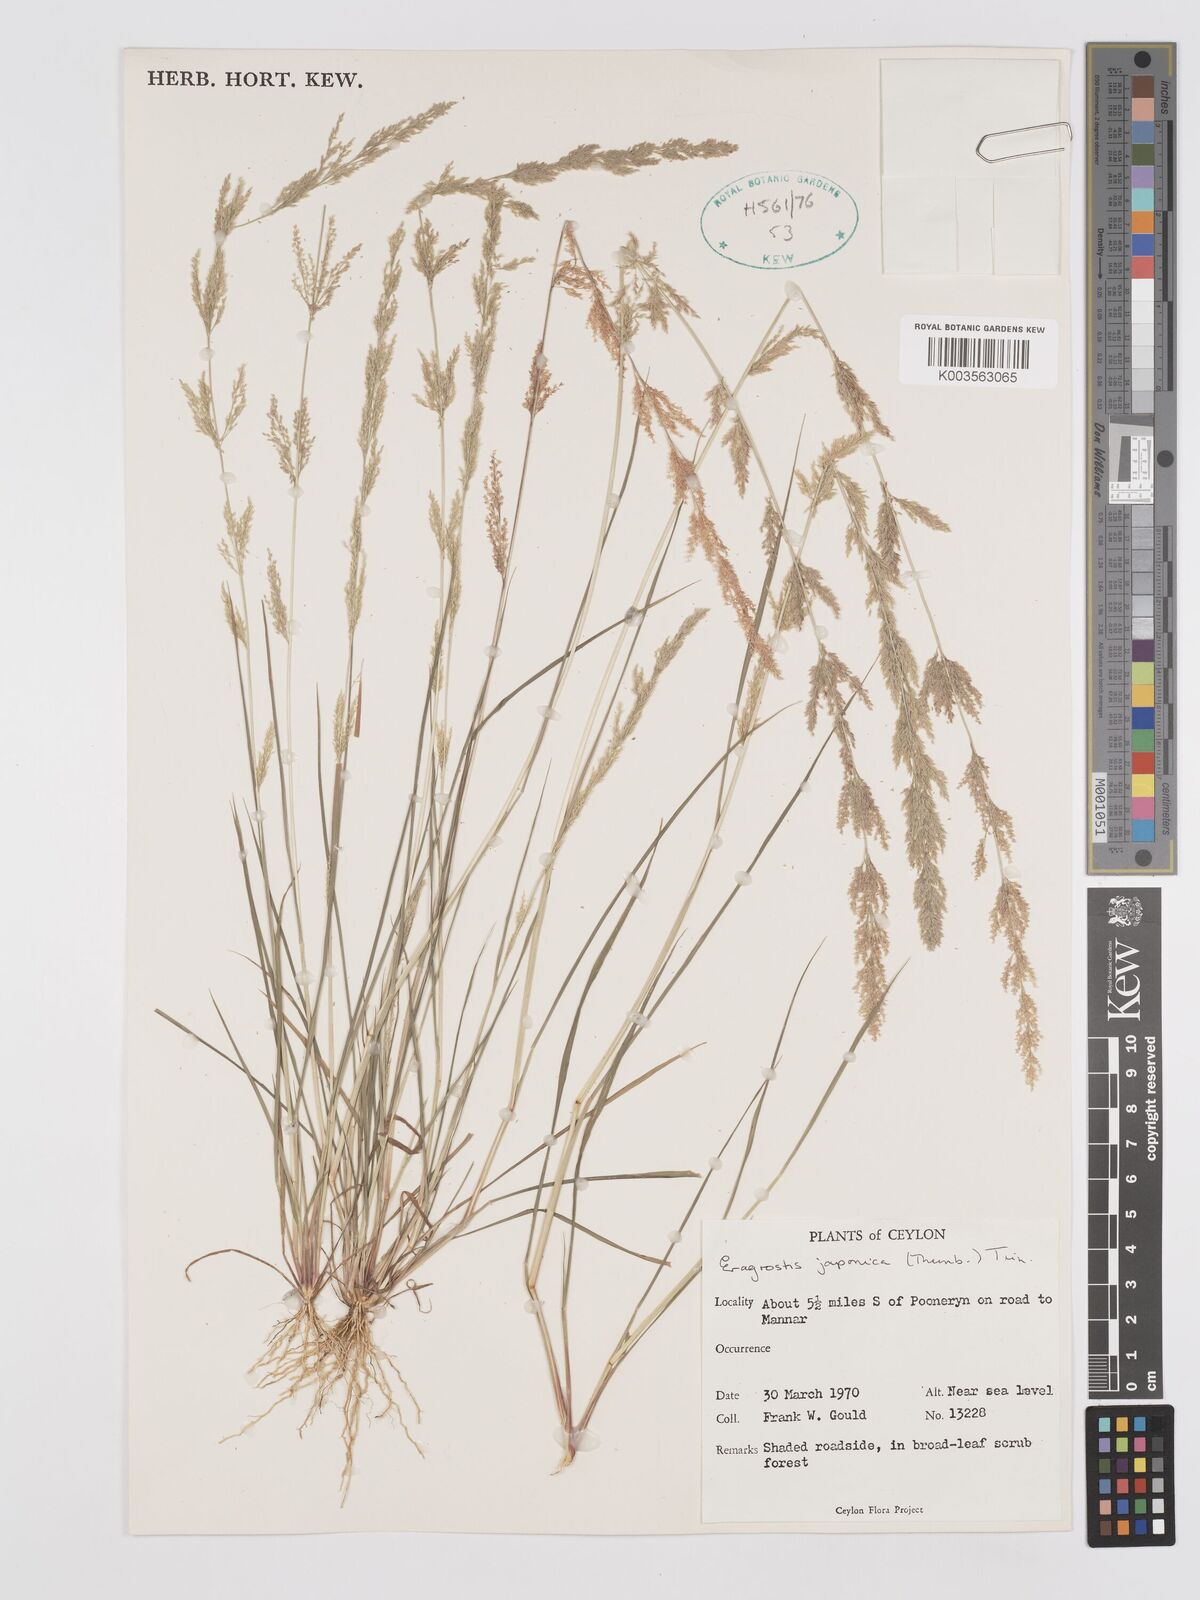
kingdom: Plantae
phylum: Tracheophyta
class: Liliopsida
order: Poales
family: Poaceae
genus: Eragrostis
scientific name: Eragrostis japonica
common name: Pond lovegrass
